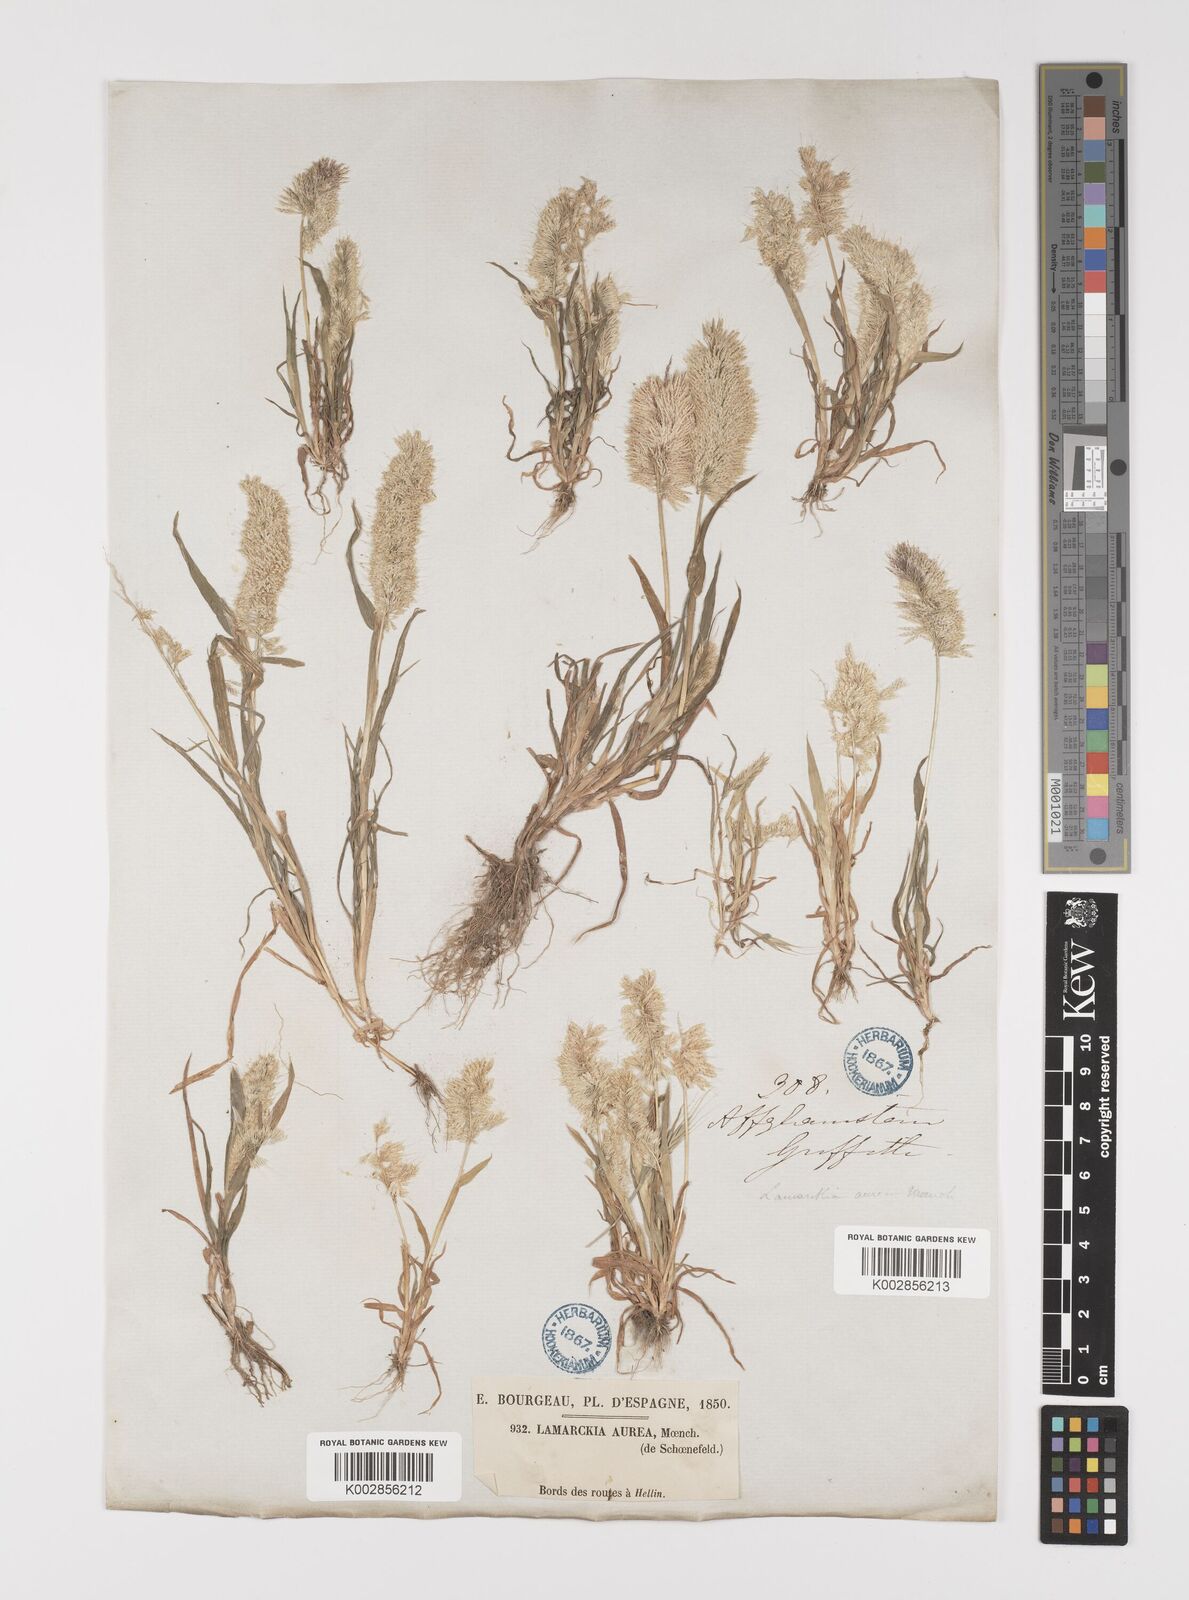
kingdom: Plantae
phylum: Tracheophyta
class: Liliopsida
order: Poales
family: Poaceae
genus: Lamarckia
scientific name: Lamarckia aurea
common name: Golden dog's-tail
